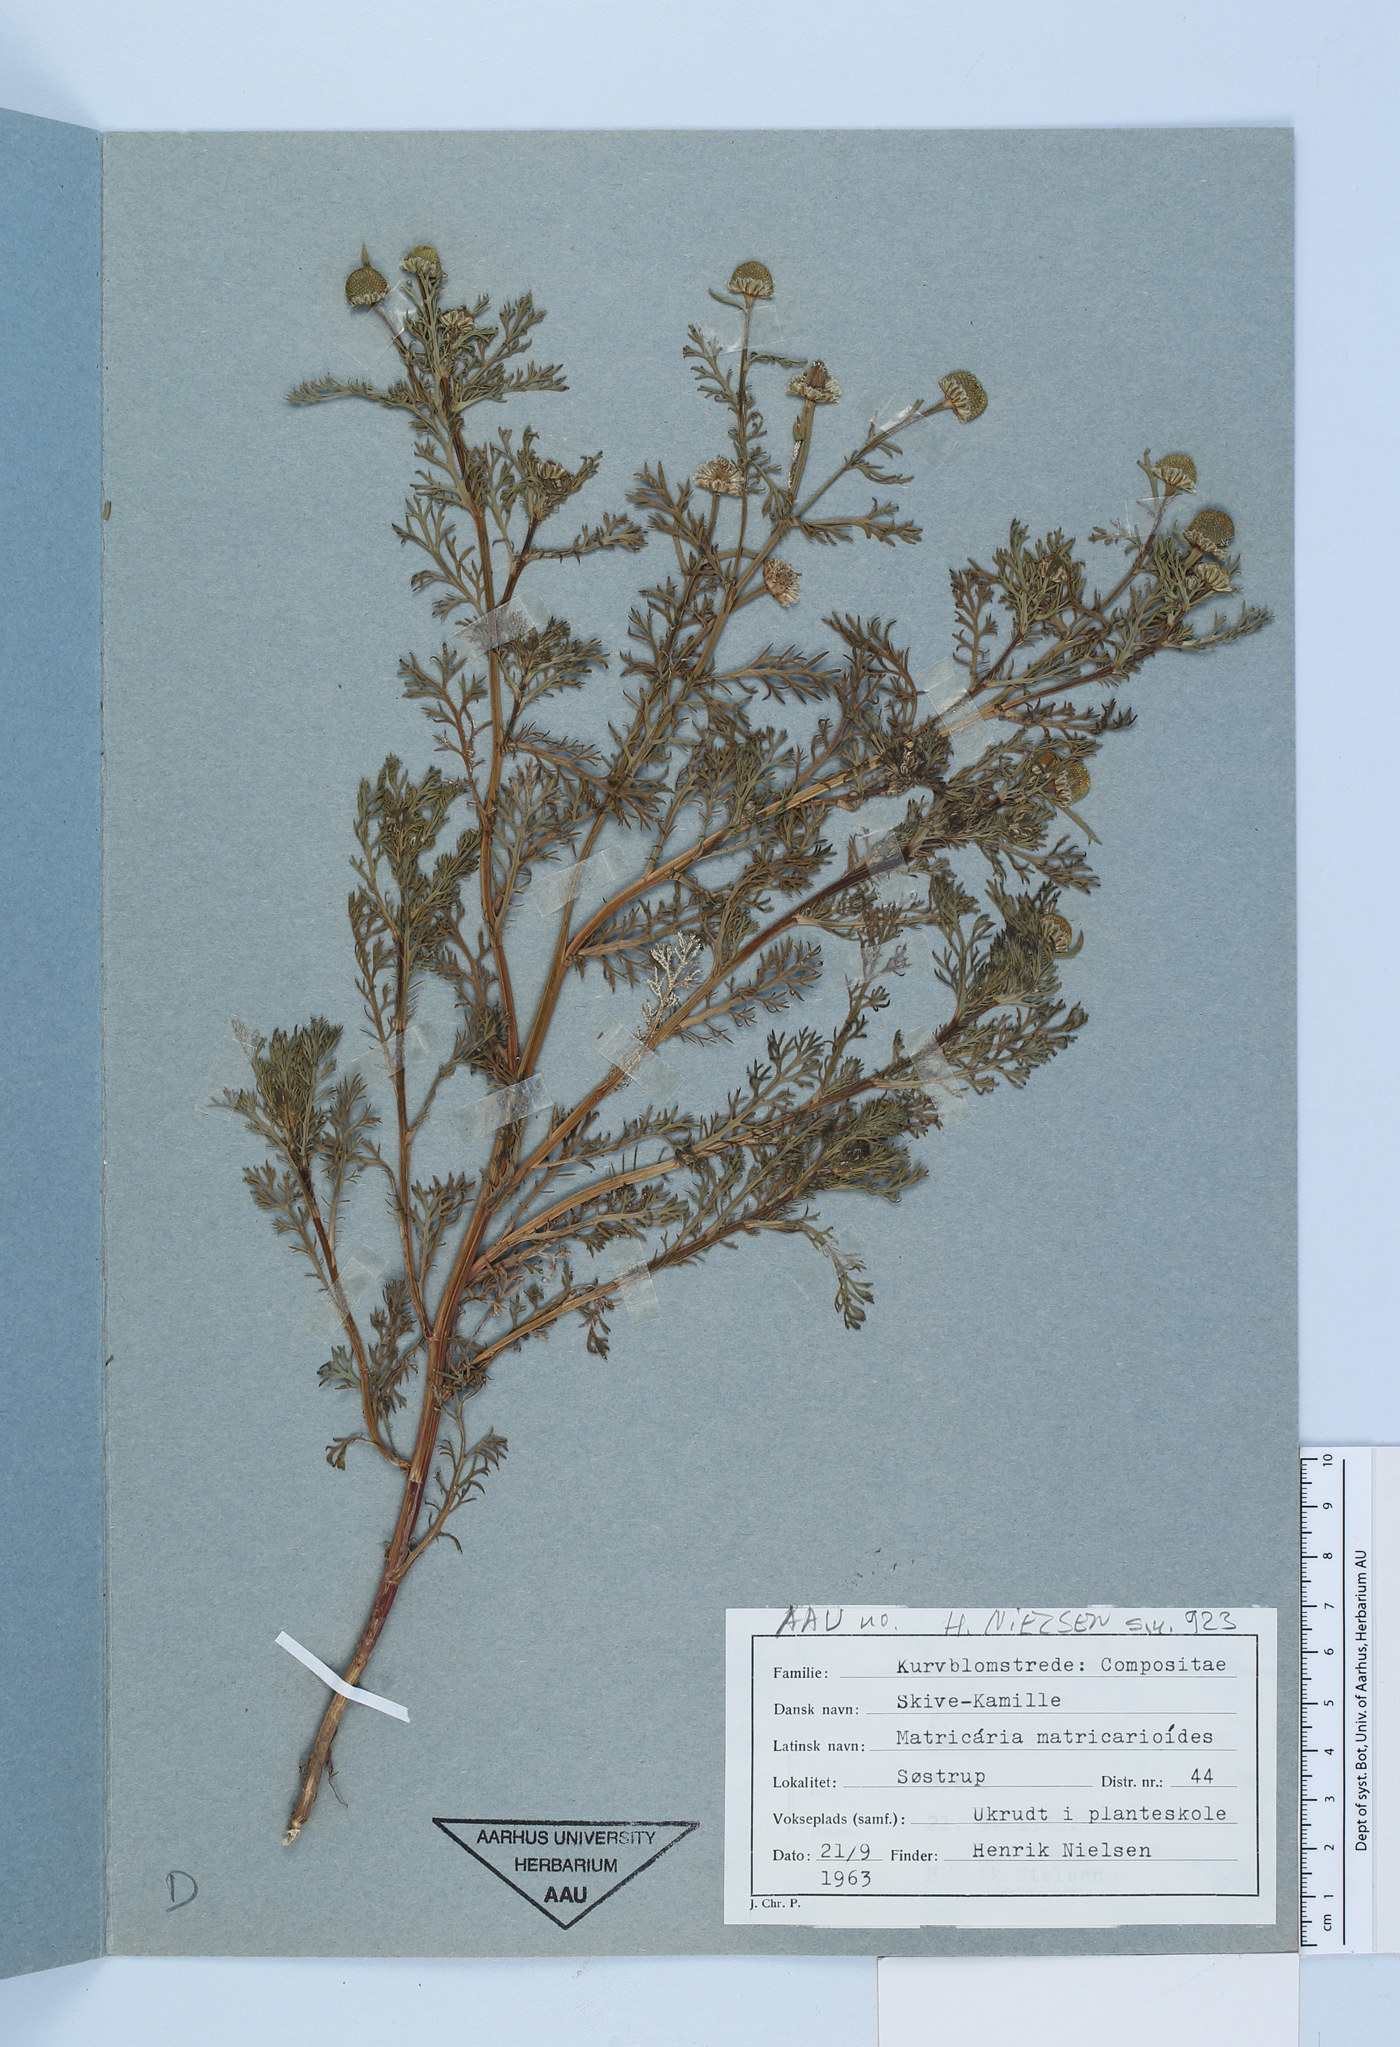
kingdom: Plantae
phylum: Tracheophyta
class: Magnoliopsida
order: Asterales
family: Asteraceae
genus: Matricaria
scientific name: Matricaria discoidea
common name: Disc mayweed
